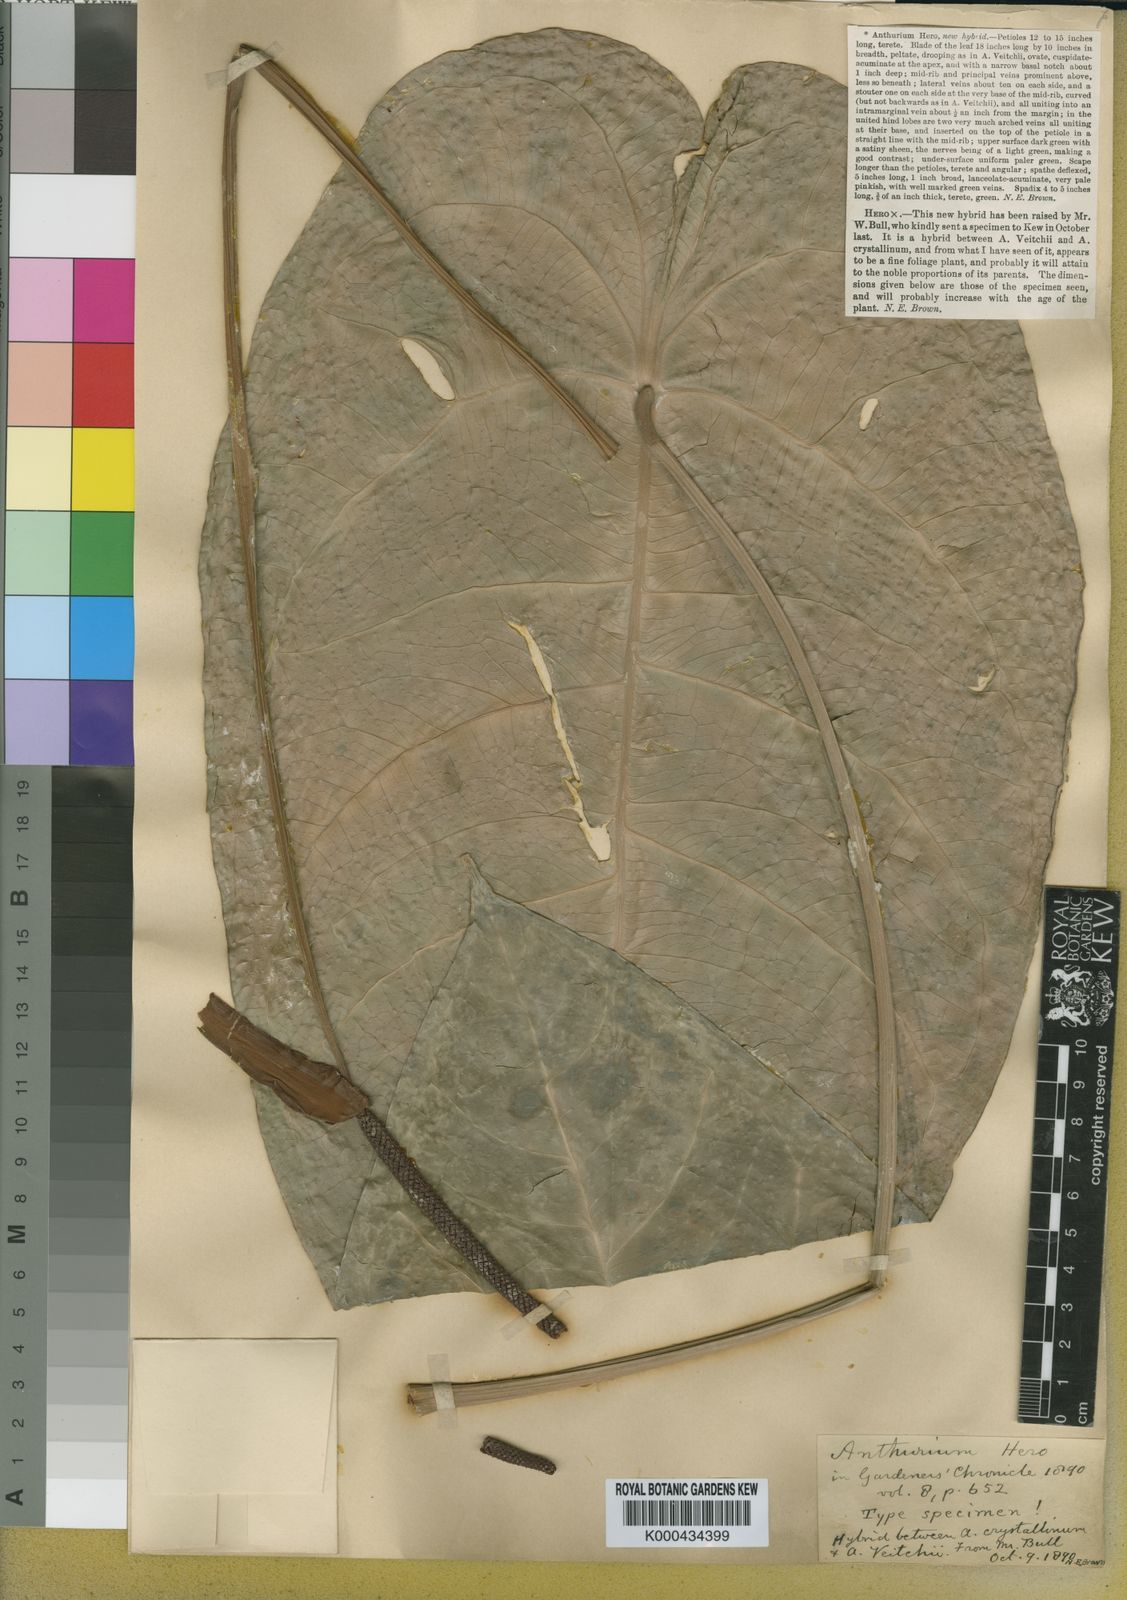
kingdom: Plantae
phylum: Tracheophyta
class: Liliopsida
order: Alismatales
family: Araceae
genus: Anthurium
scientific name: Anthurium hero
